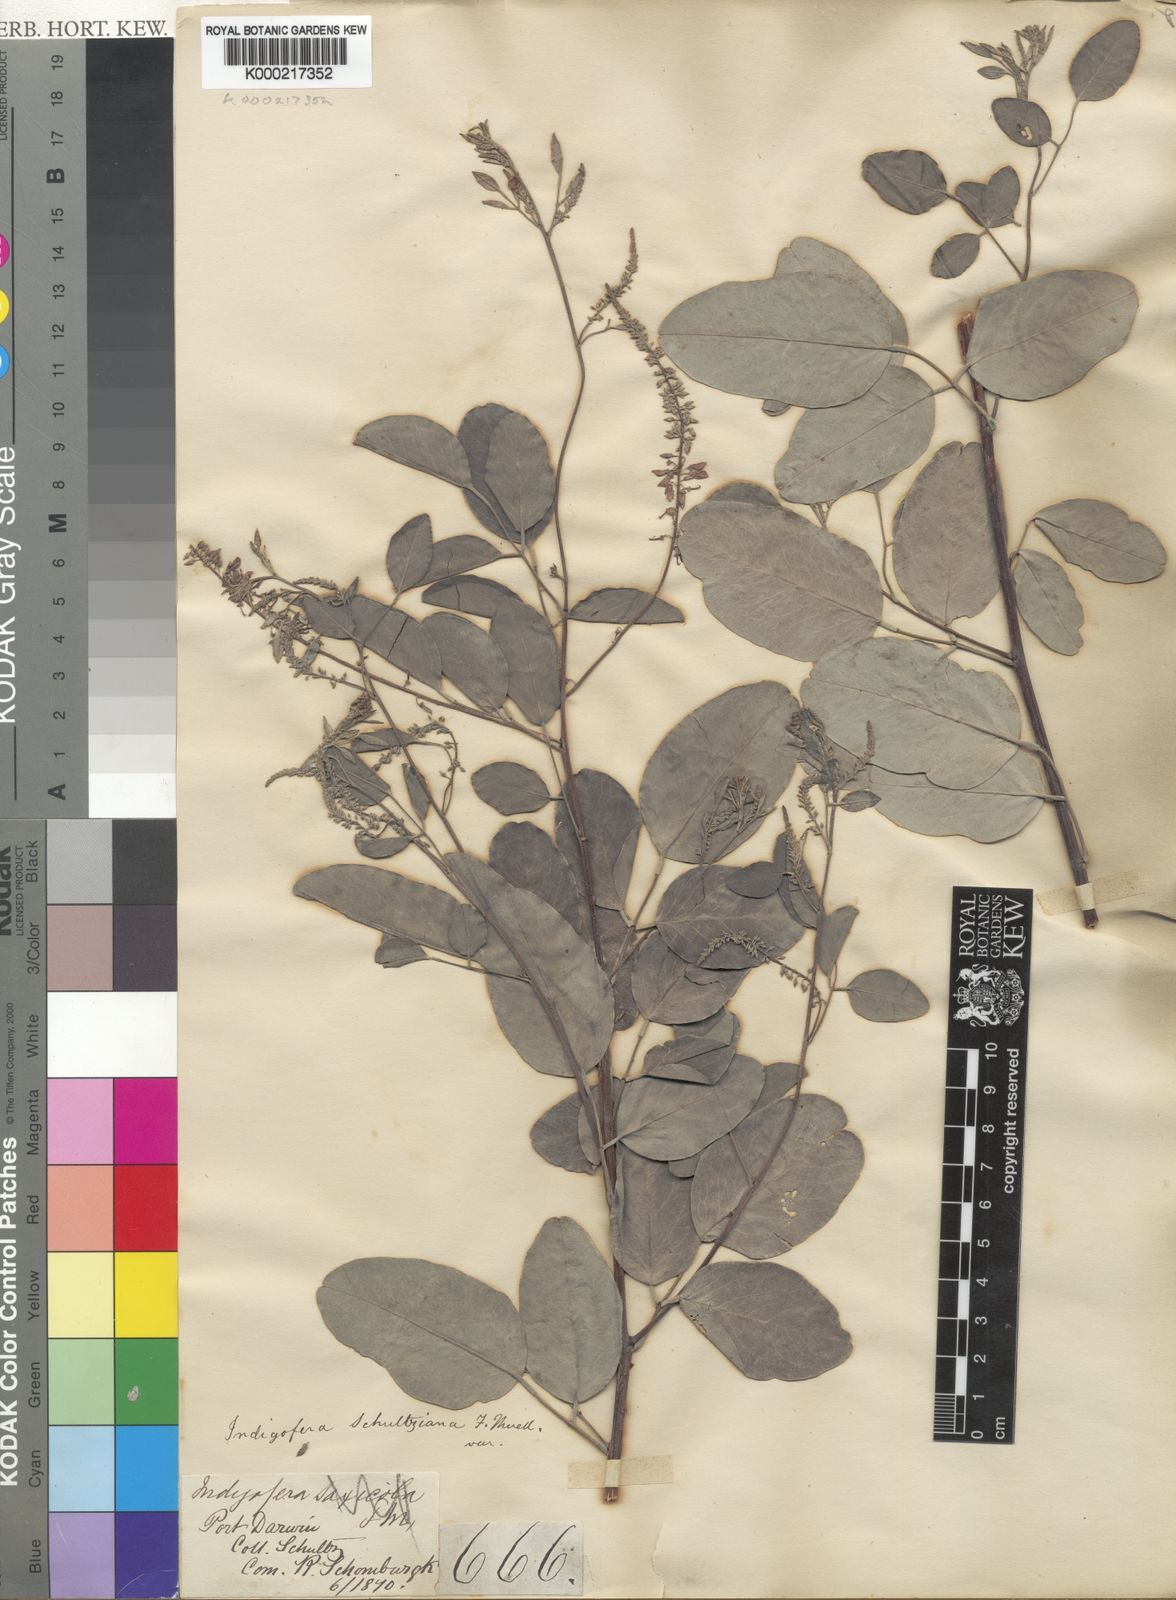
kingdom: Plantae
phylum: Tracheophyta
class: Magnoliopsida
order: Fabales
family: Fabaceae
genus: Indigofera
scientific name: Indigofera schultziana
